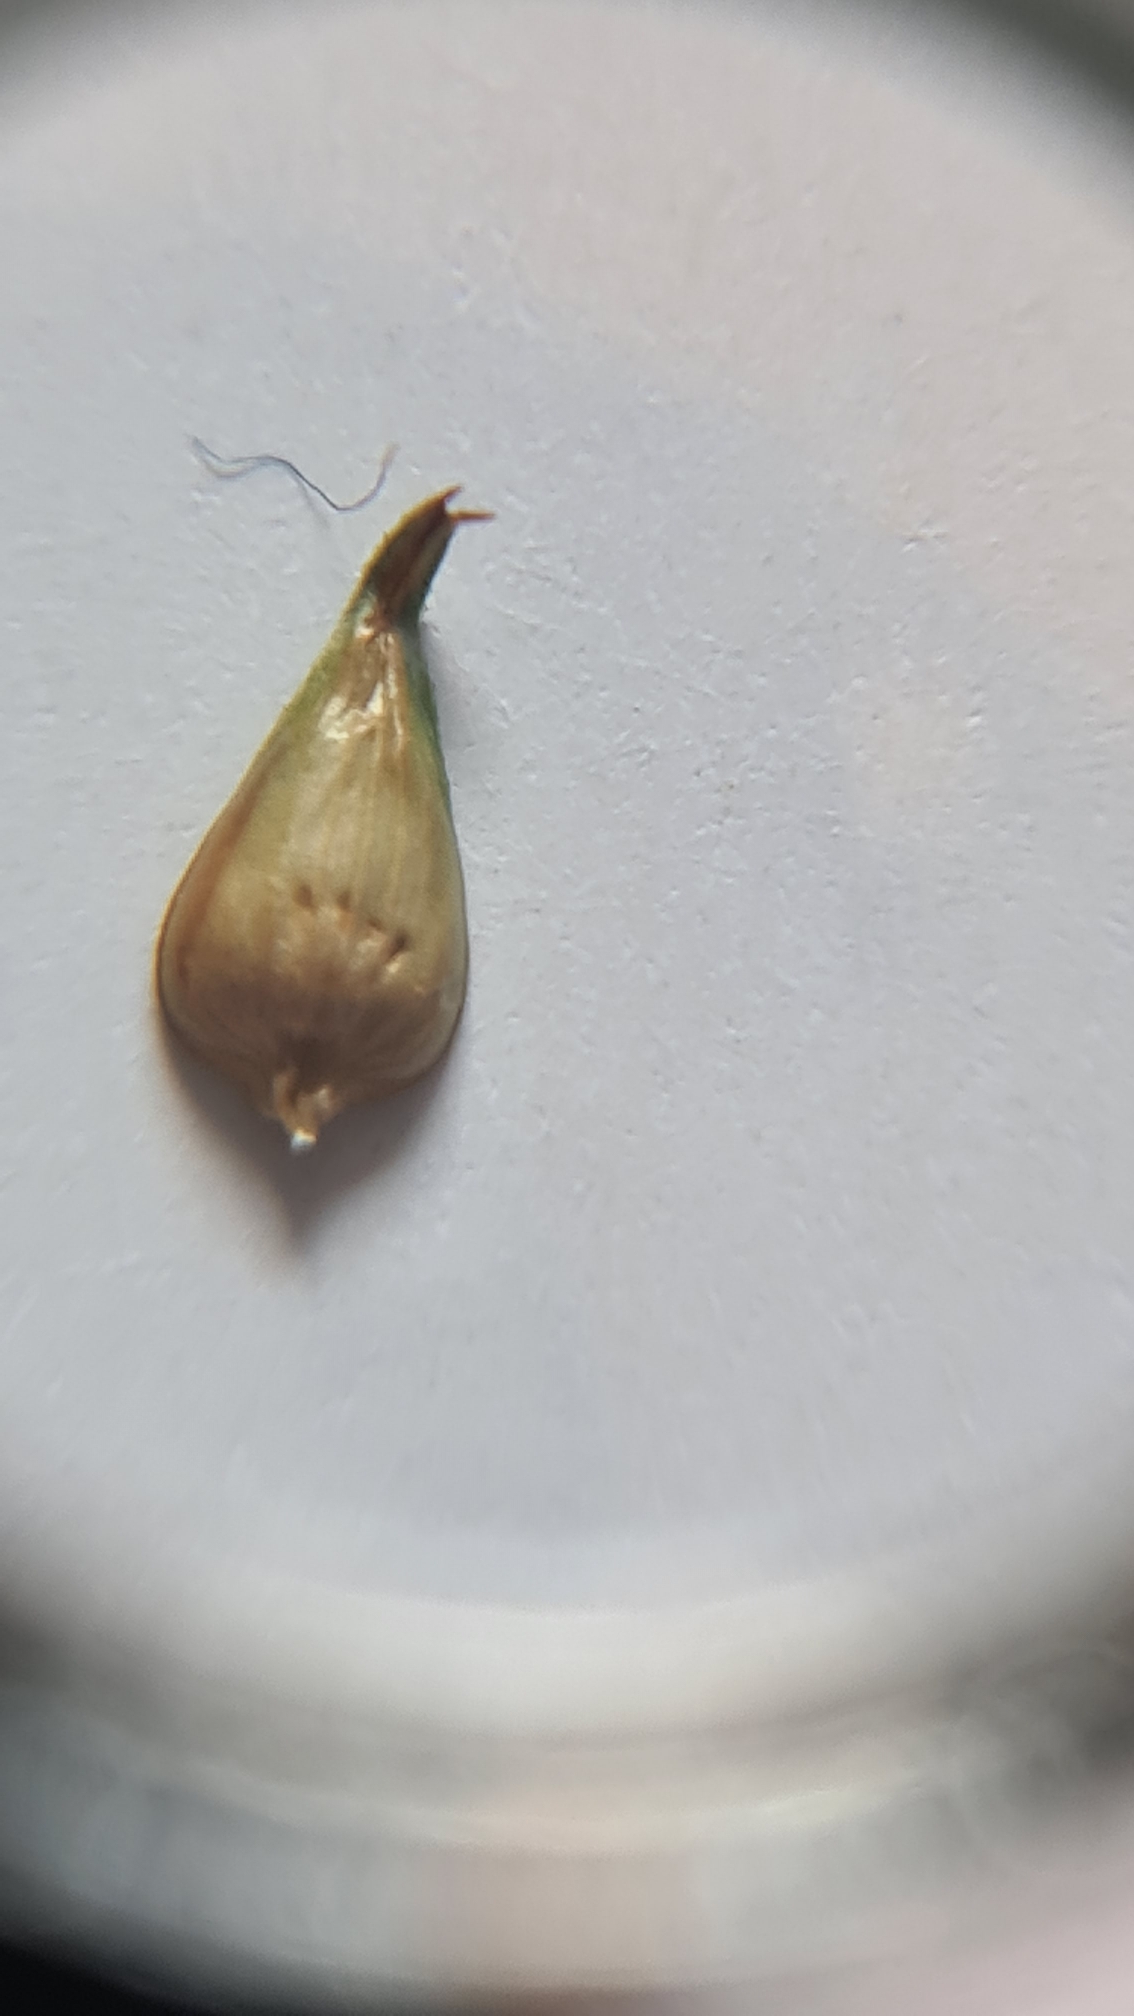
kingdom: Plantae
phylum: Tracheophyta
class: Liliopsida
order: Poales
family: Cyperaceae
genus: Carex
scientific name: Carex otrubae
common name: Sylt-star
